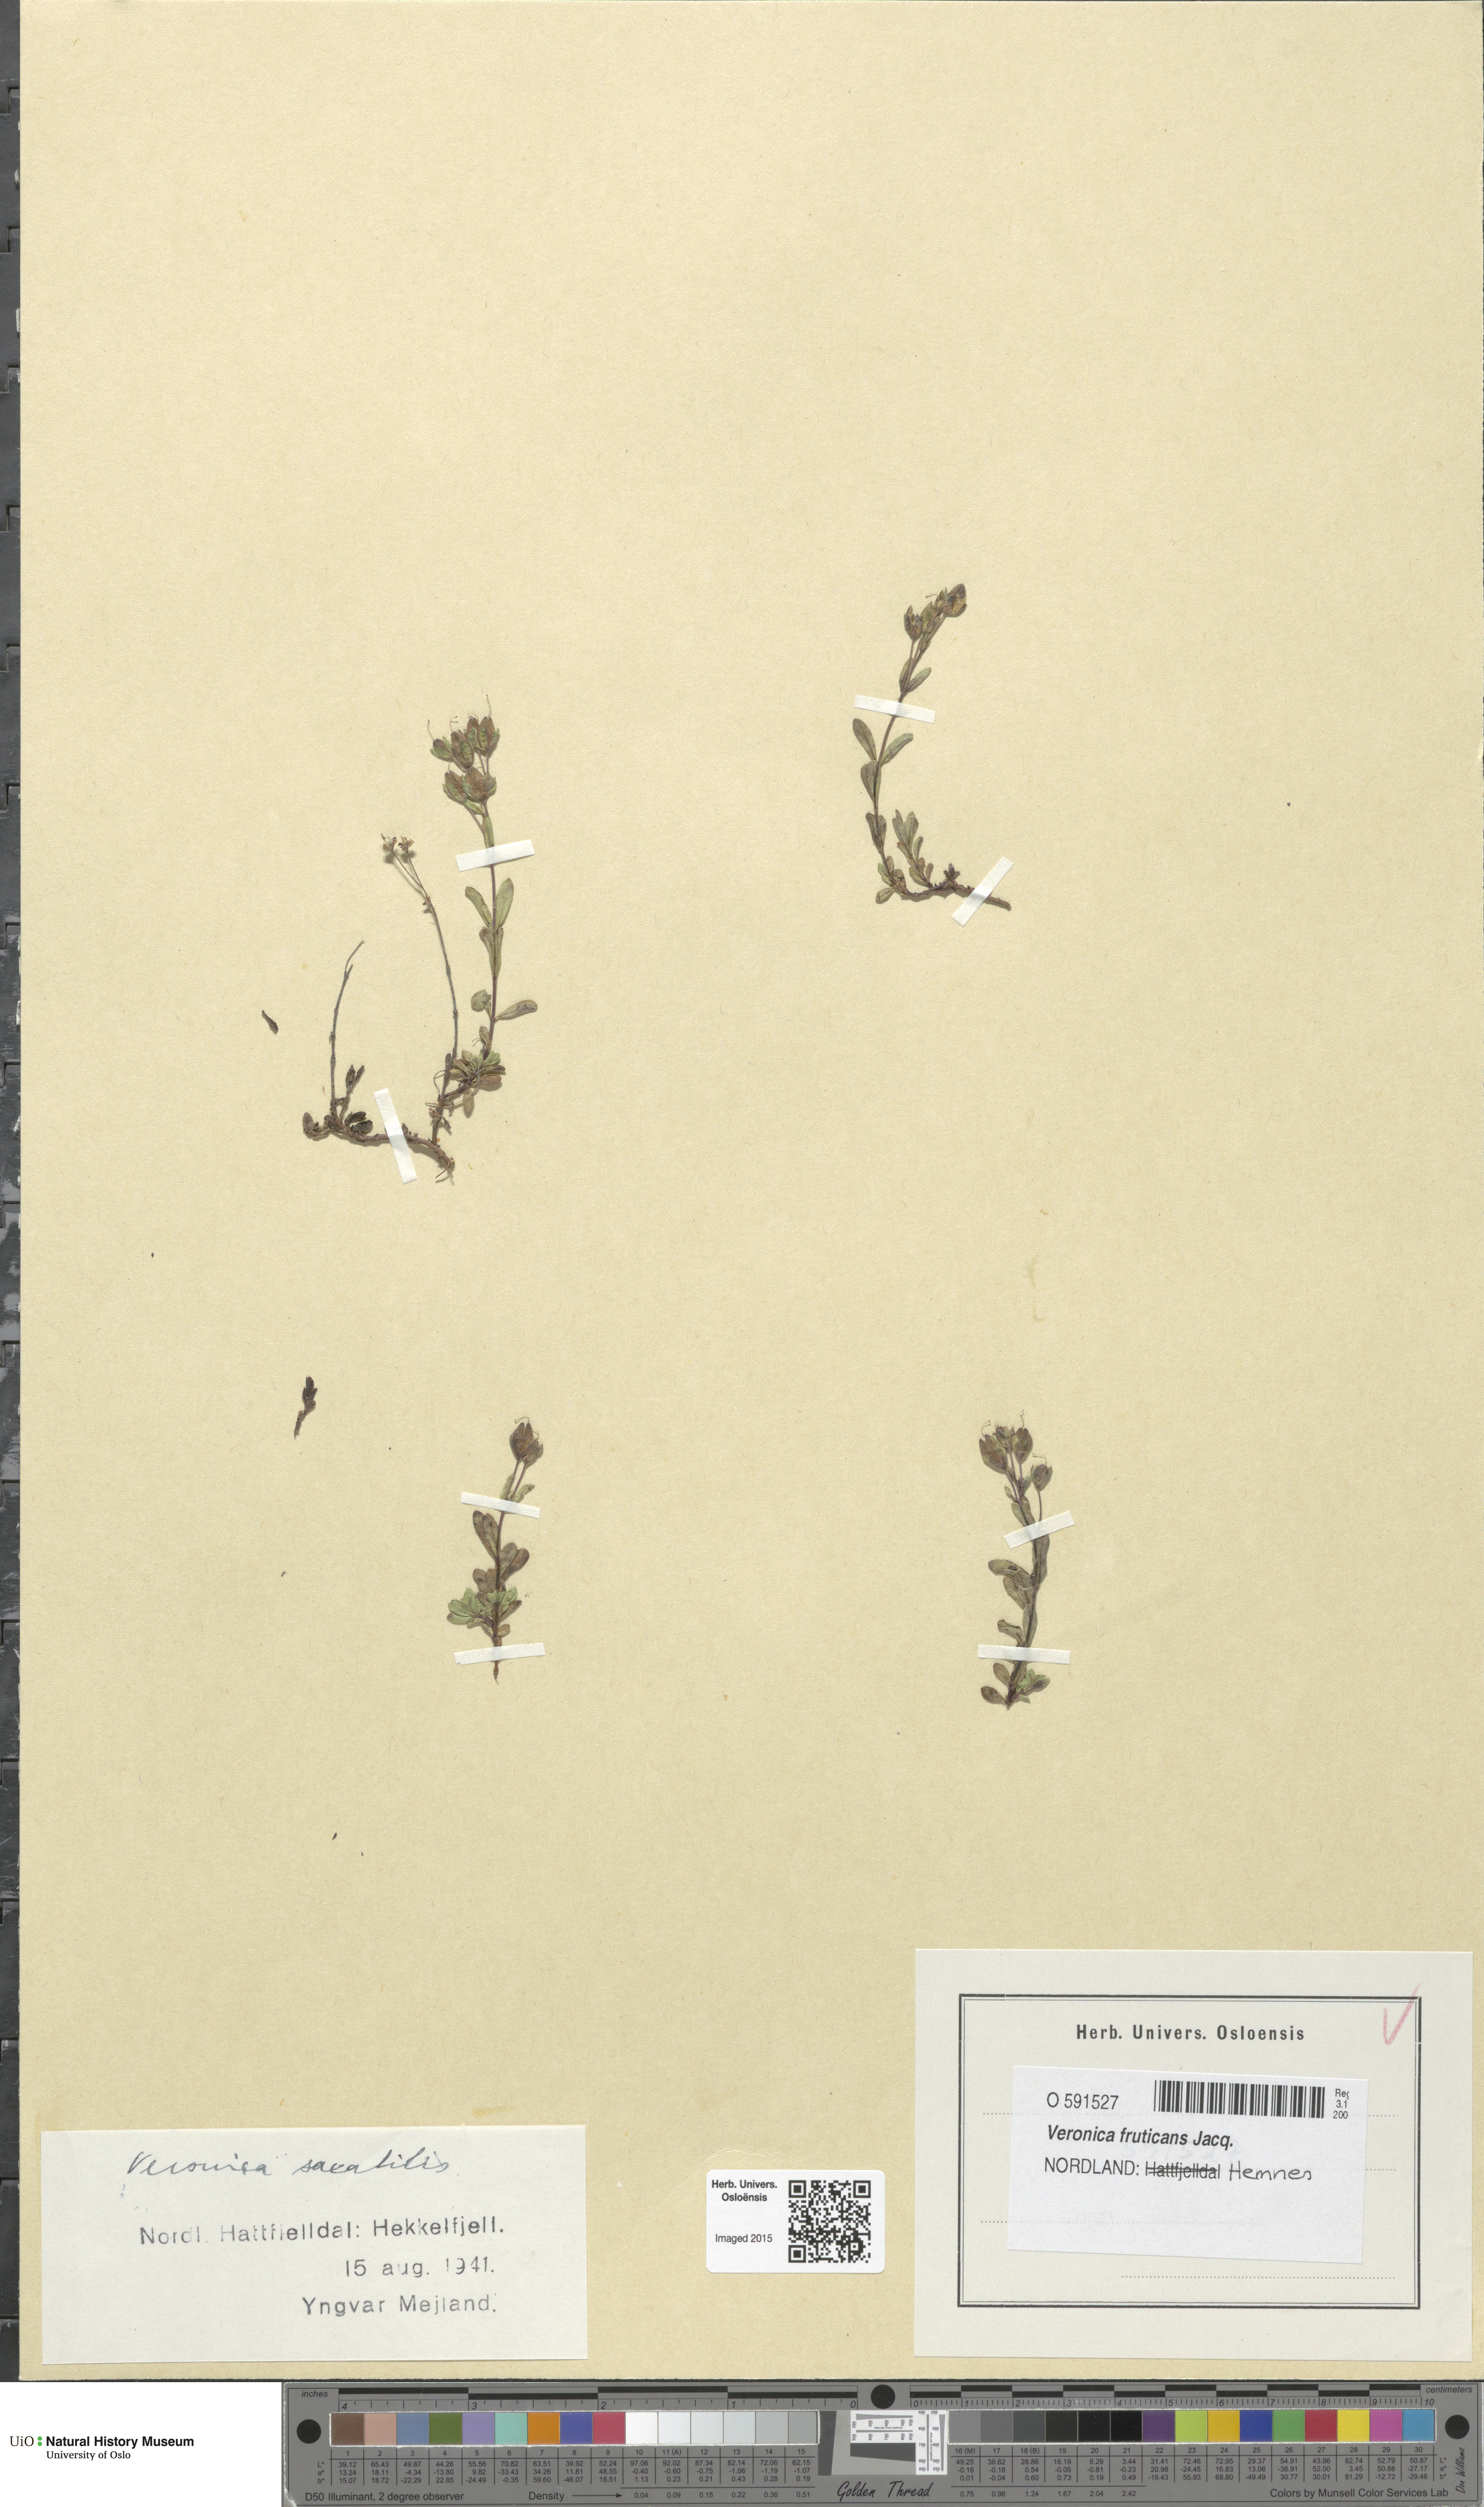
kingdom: Plantae
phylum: Tracheophyta
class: Magnoliopsida
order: Lamiales
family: Plantaginaceae
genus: Veronica
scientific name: Veronica fruticans
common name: Rock speedwell
